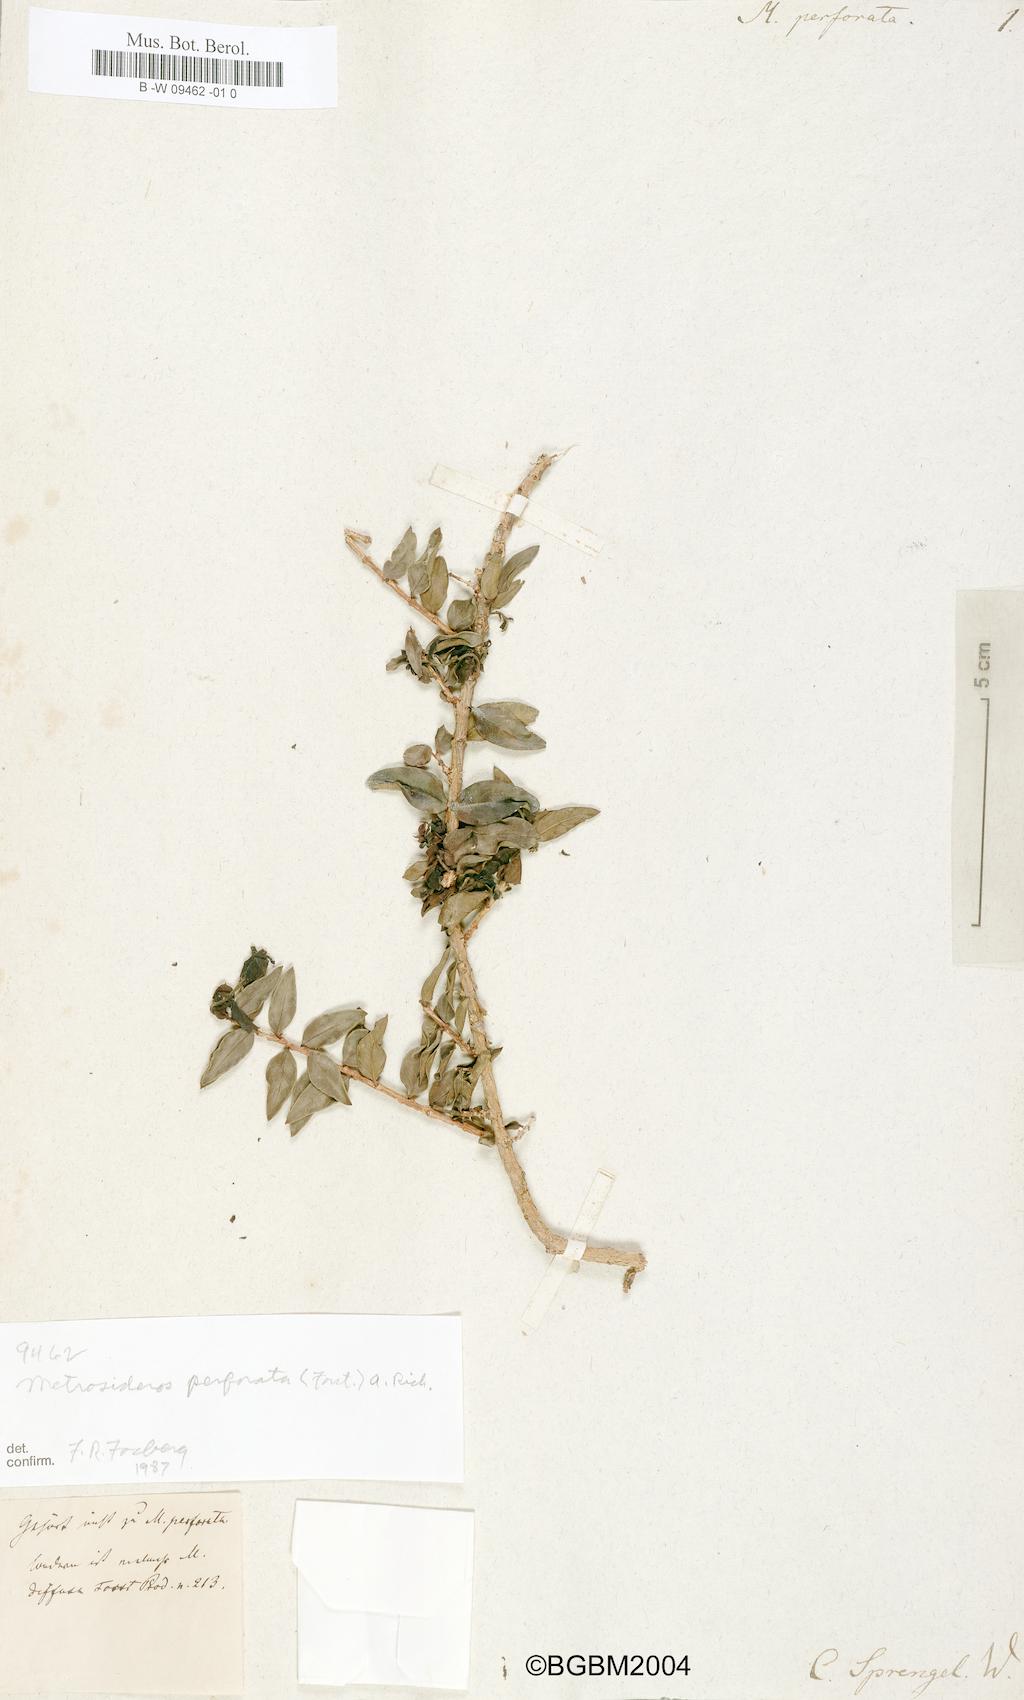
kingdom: Plantae
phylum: Tracheophyta
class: Magnoliopsida
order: Myrtales
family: Myrtaceae
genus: Metrosideros
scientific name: Metrosideros perforata
